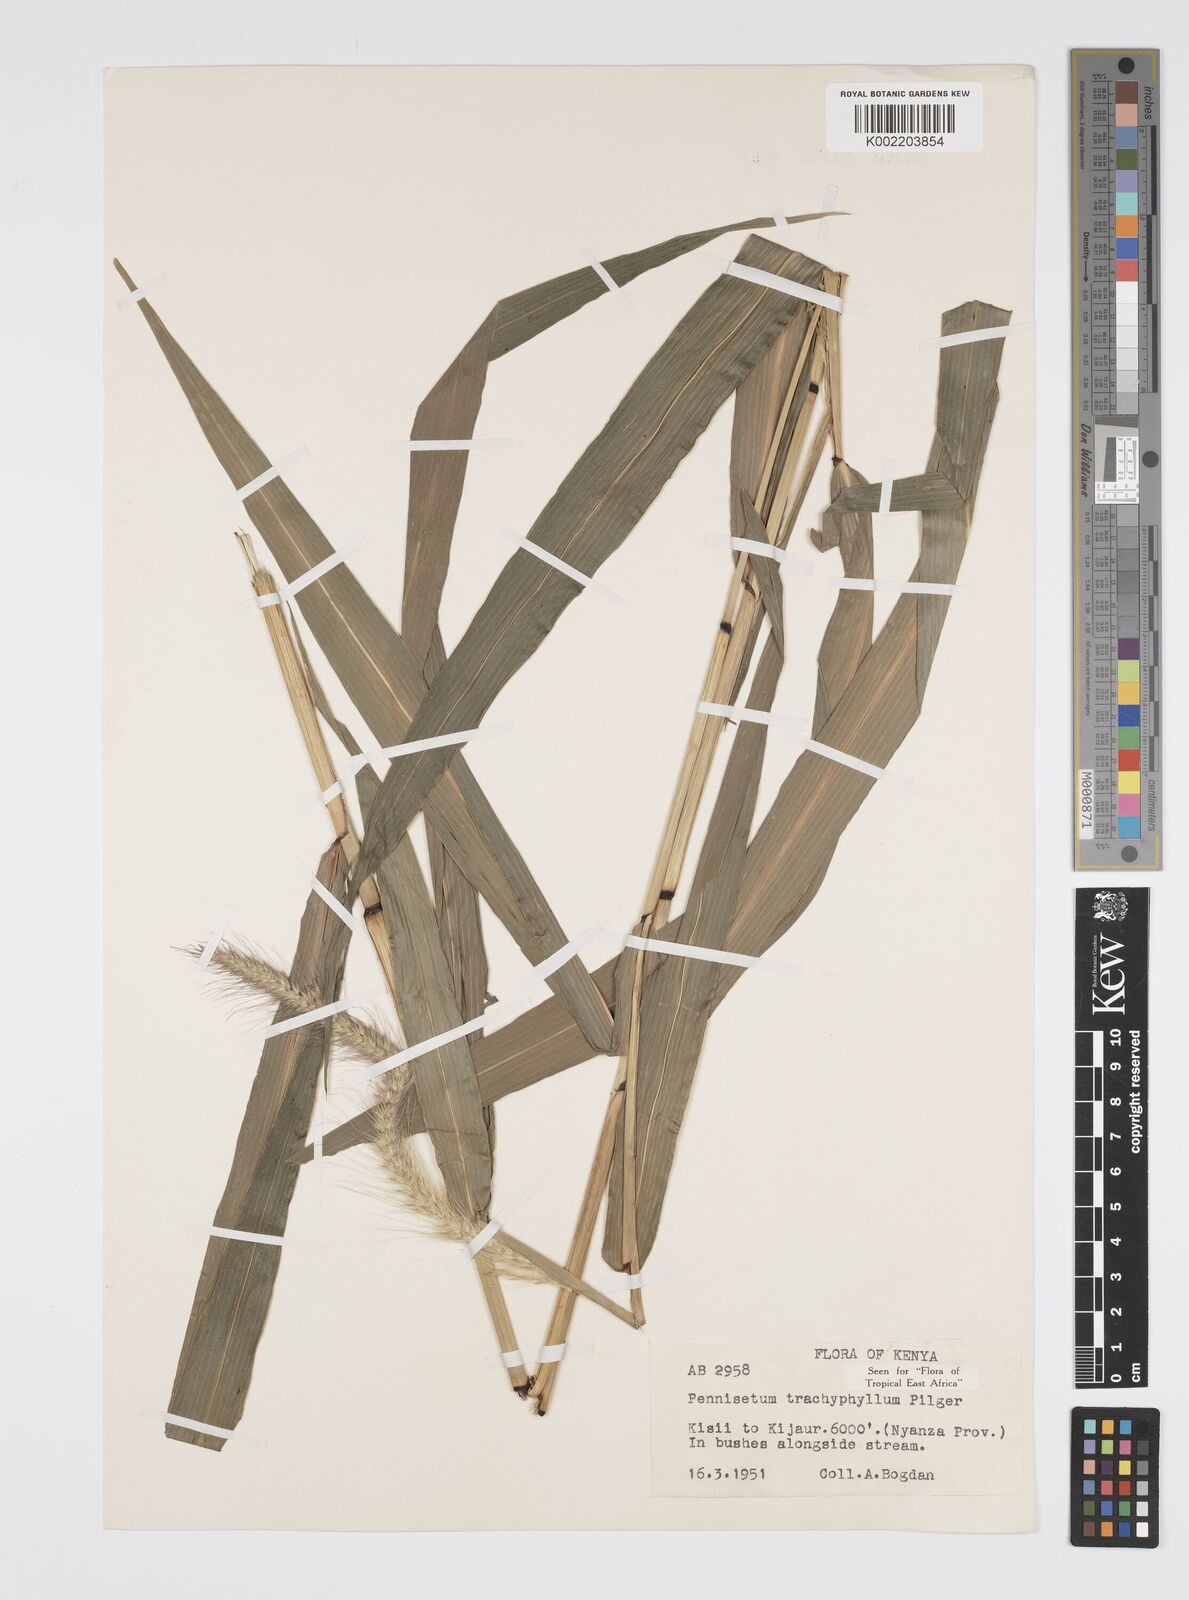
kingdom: Plantae
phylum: Tracheophyta
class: Liliopsida
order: Poales
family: Poaceae
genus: Cenchrus
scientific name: Cenchrus trachyphyllus
